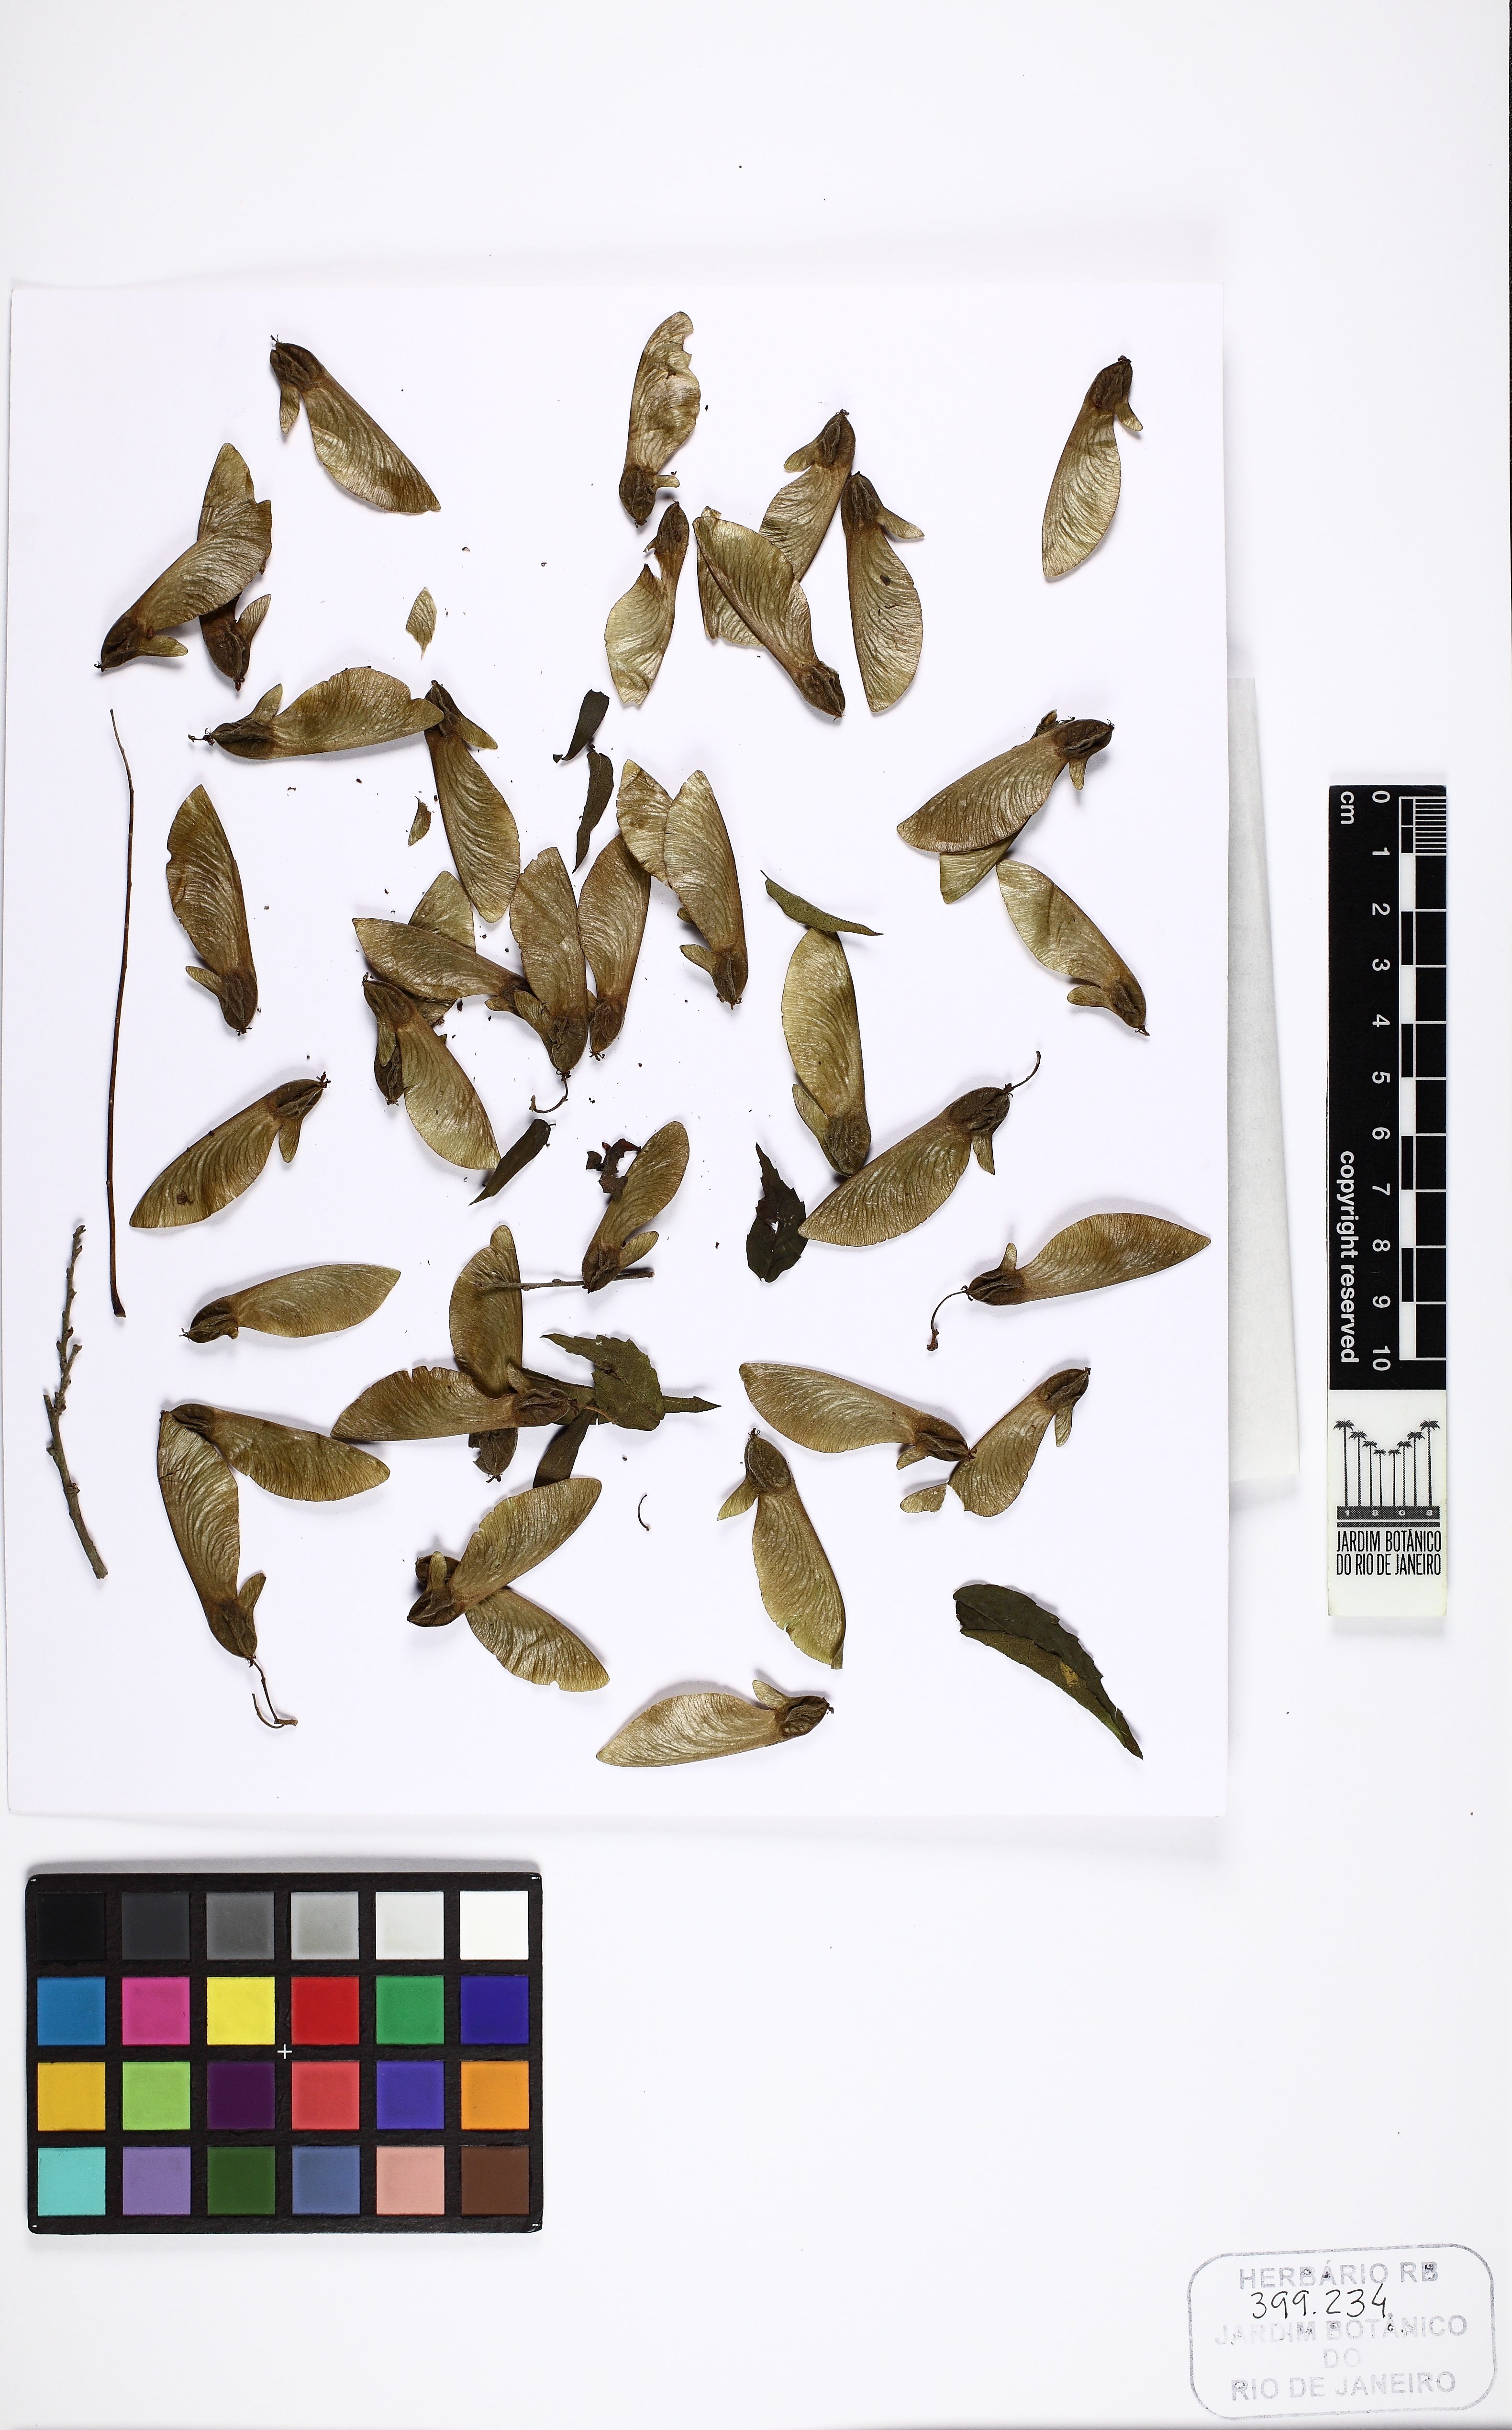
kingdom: Plantae
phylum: Tracheophyta
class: Magnoliopsida
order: Rosales
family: Ulmaceae
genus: Phyllostylon
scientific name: Phyllostylon brasiliensis
